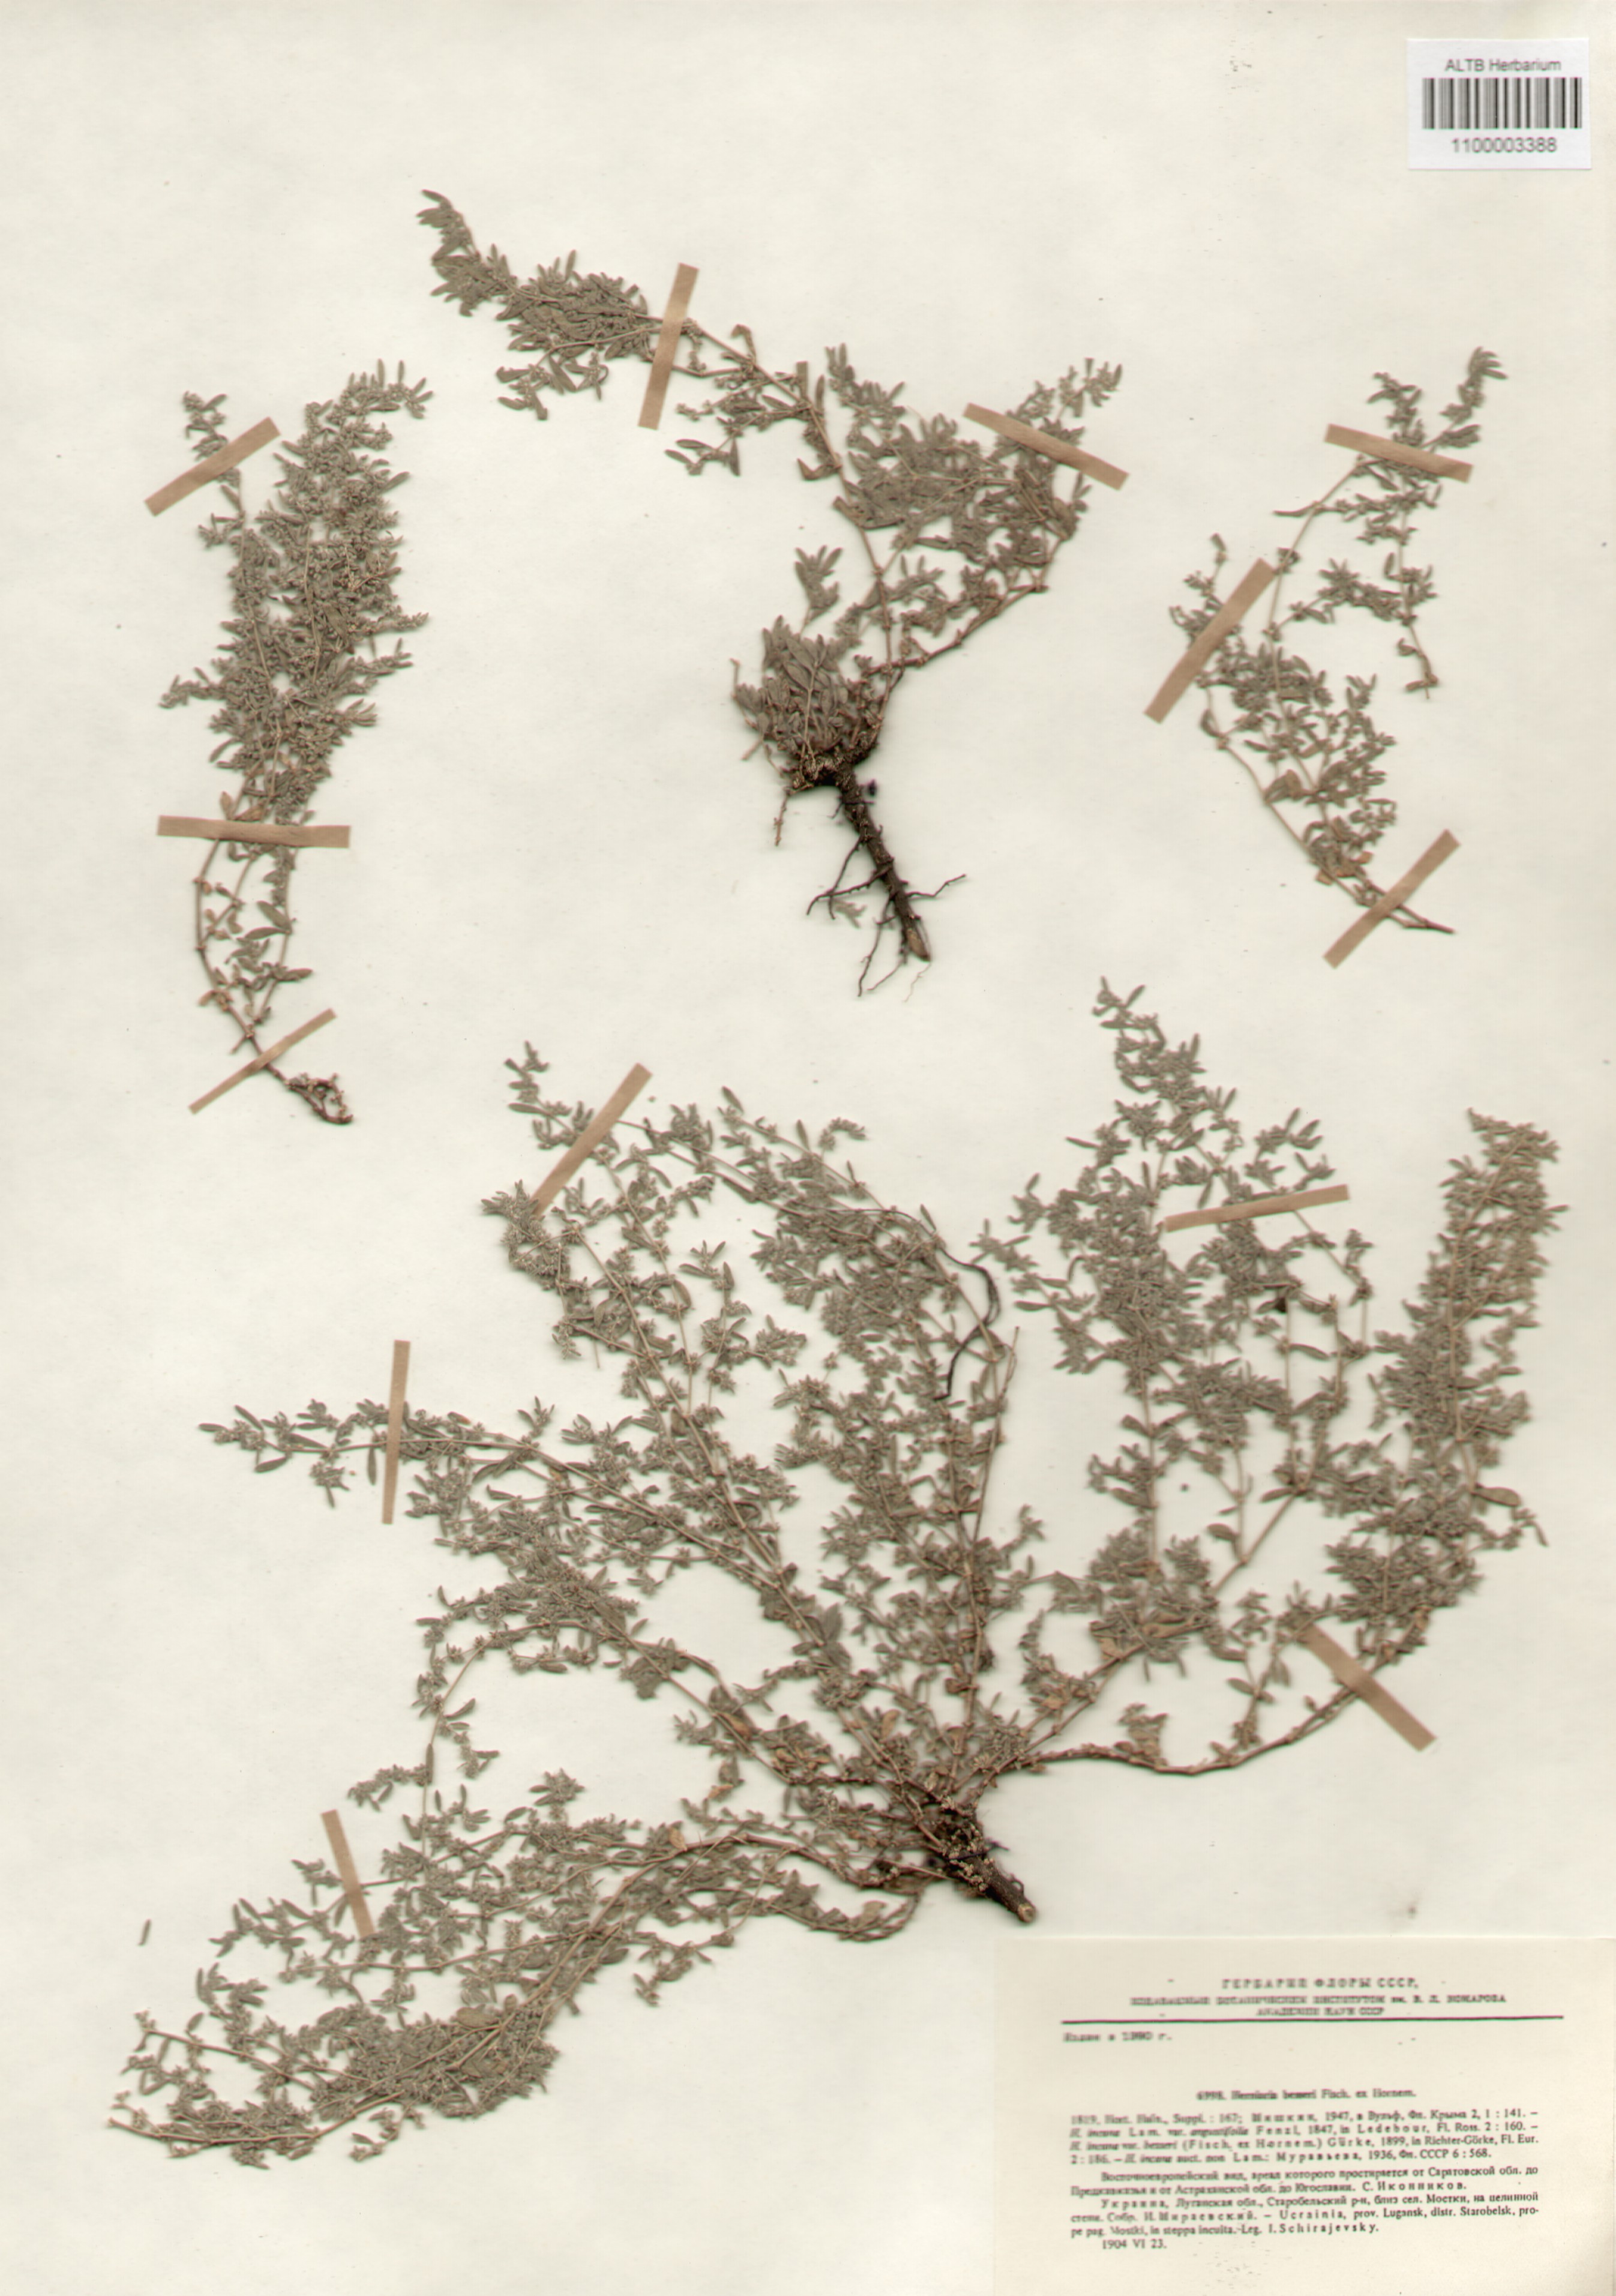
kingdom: Plantae
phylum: Tracheophyta
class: Magnoliopsida
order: Caryophyllales
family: Caryophyllaceae
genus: Herniaria
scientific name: Herniaria incana
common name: Gray rupturewort
